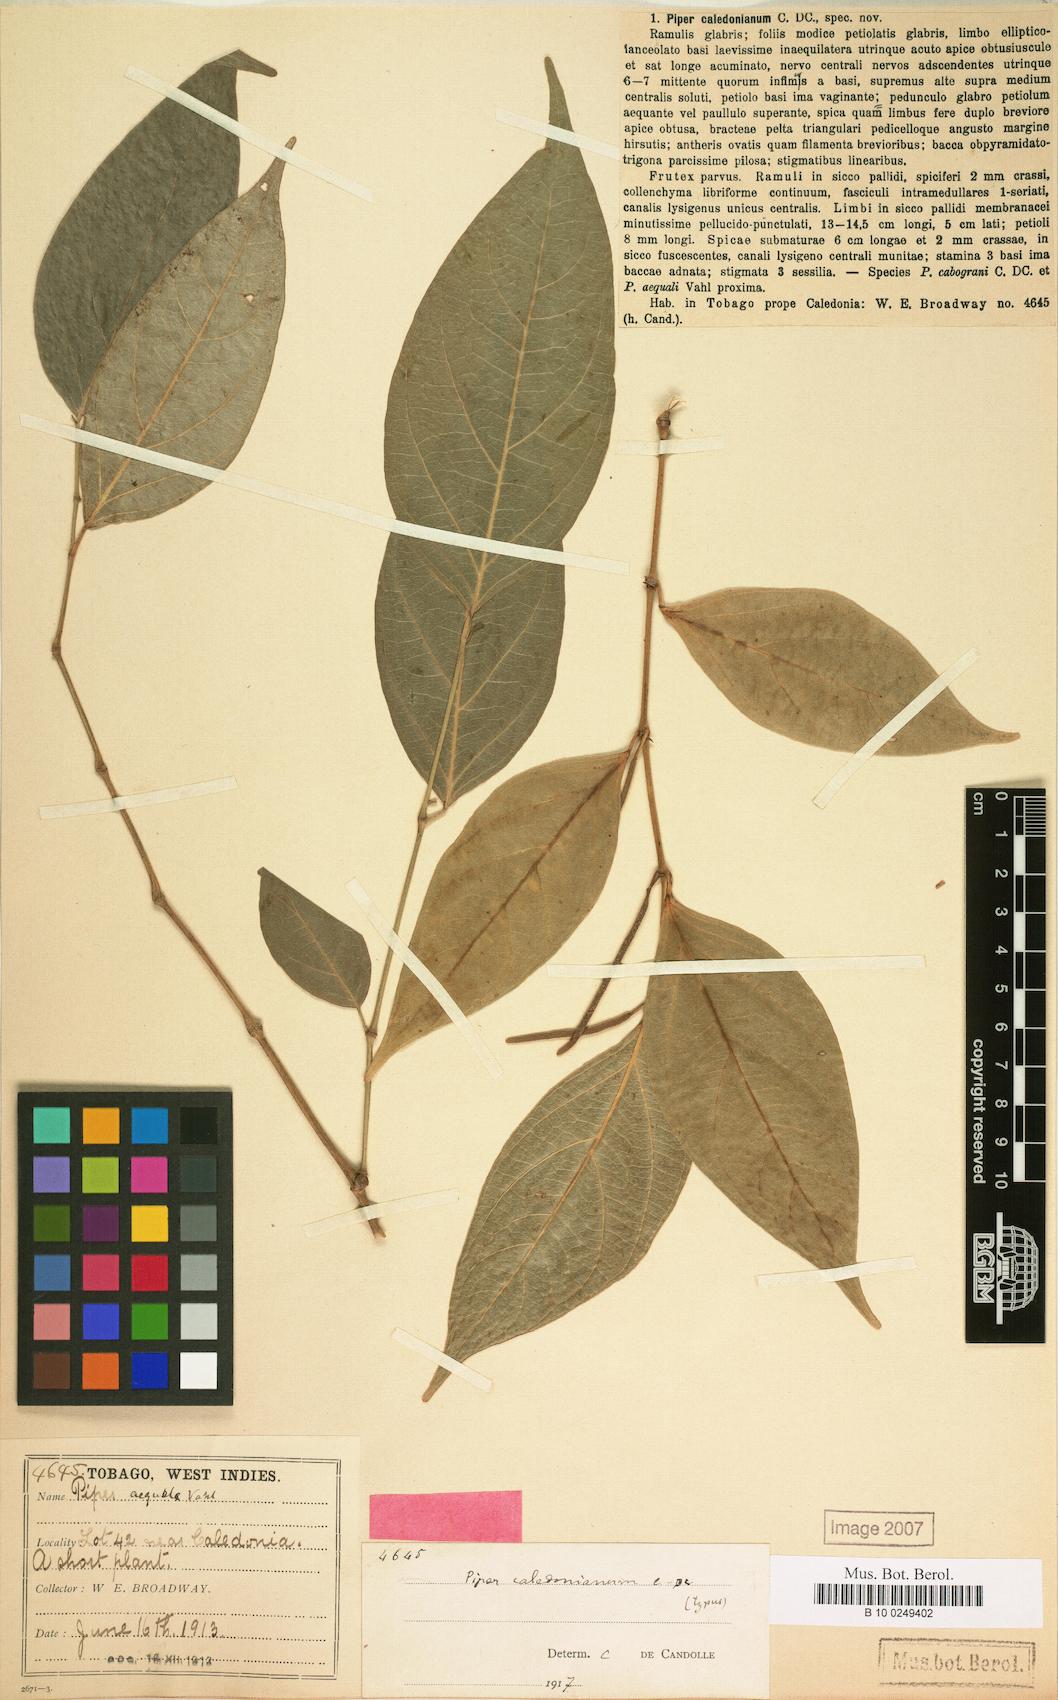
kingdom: Plantae
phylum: Tracheophyta
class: Magnoliopsida
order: Piperales
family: Piperaceae
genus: Piper
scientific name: Piper aequale
